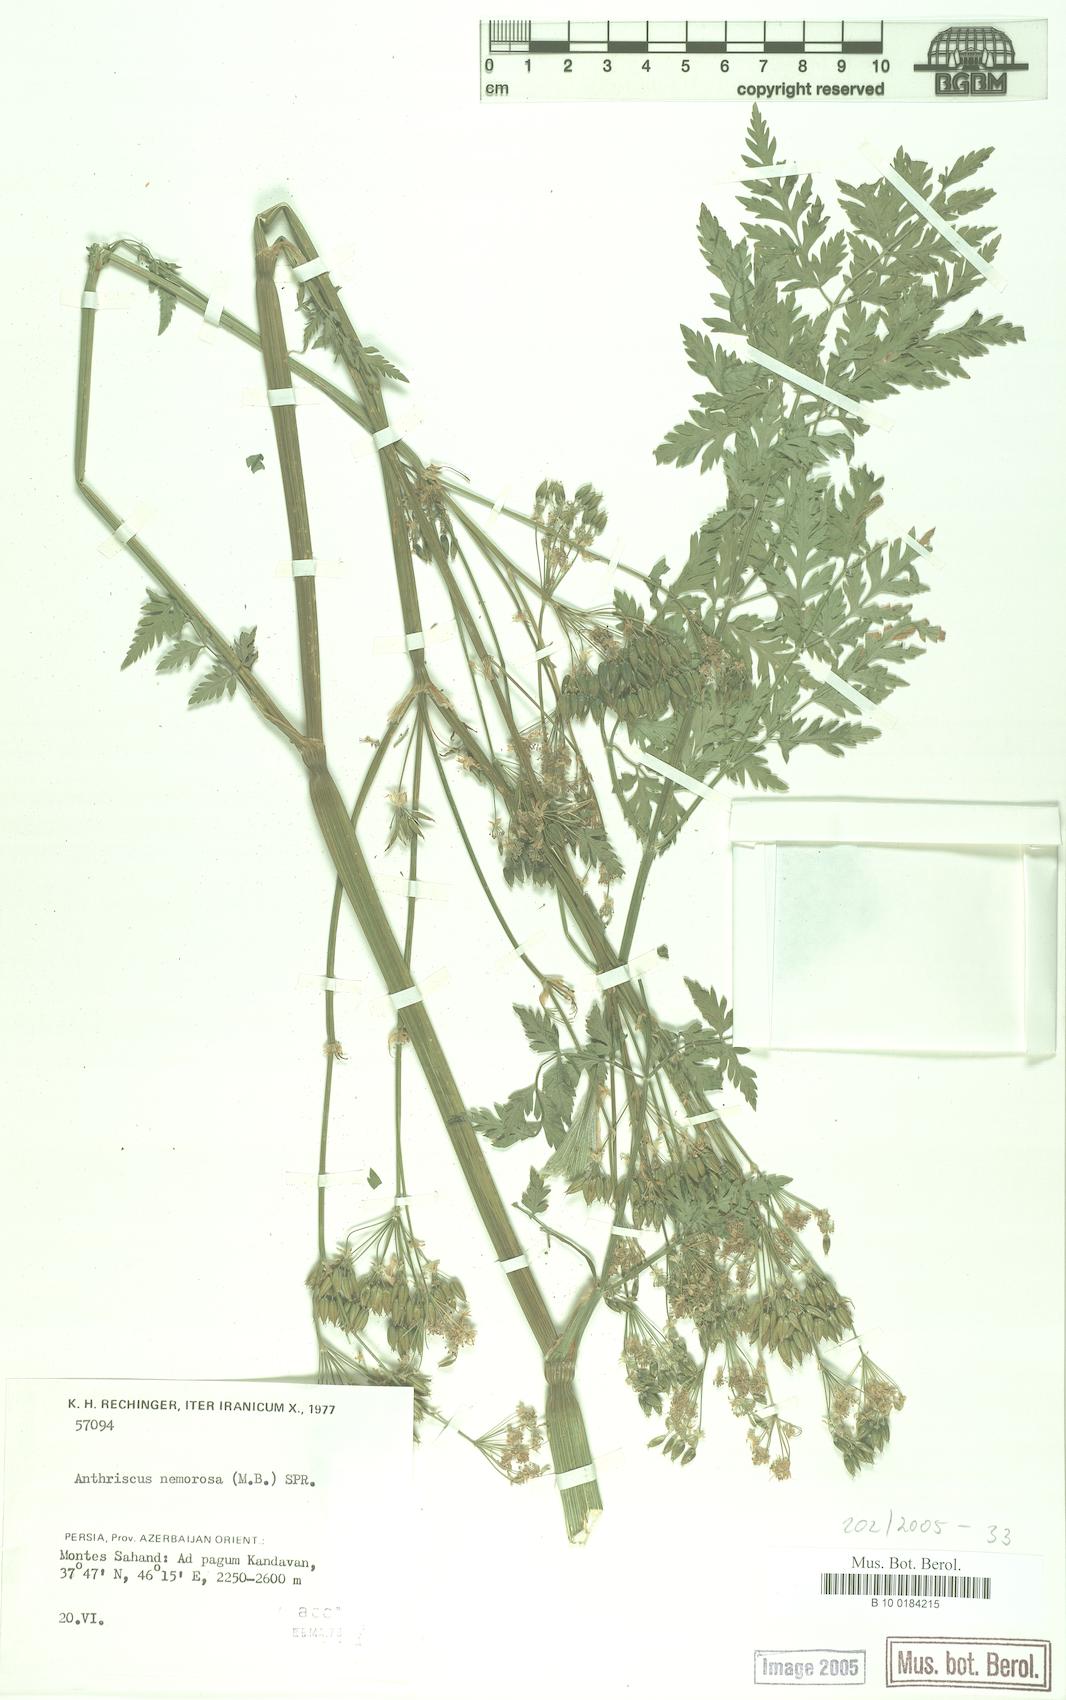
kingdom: Plantae
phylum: Tracheophyta
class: Magnoliopsida
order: Apiales
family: Apiaceae
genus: Anthriscus
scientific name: Anthriscus sylvestris
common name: Cow parsley
